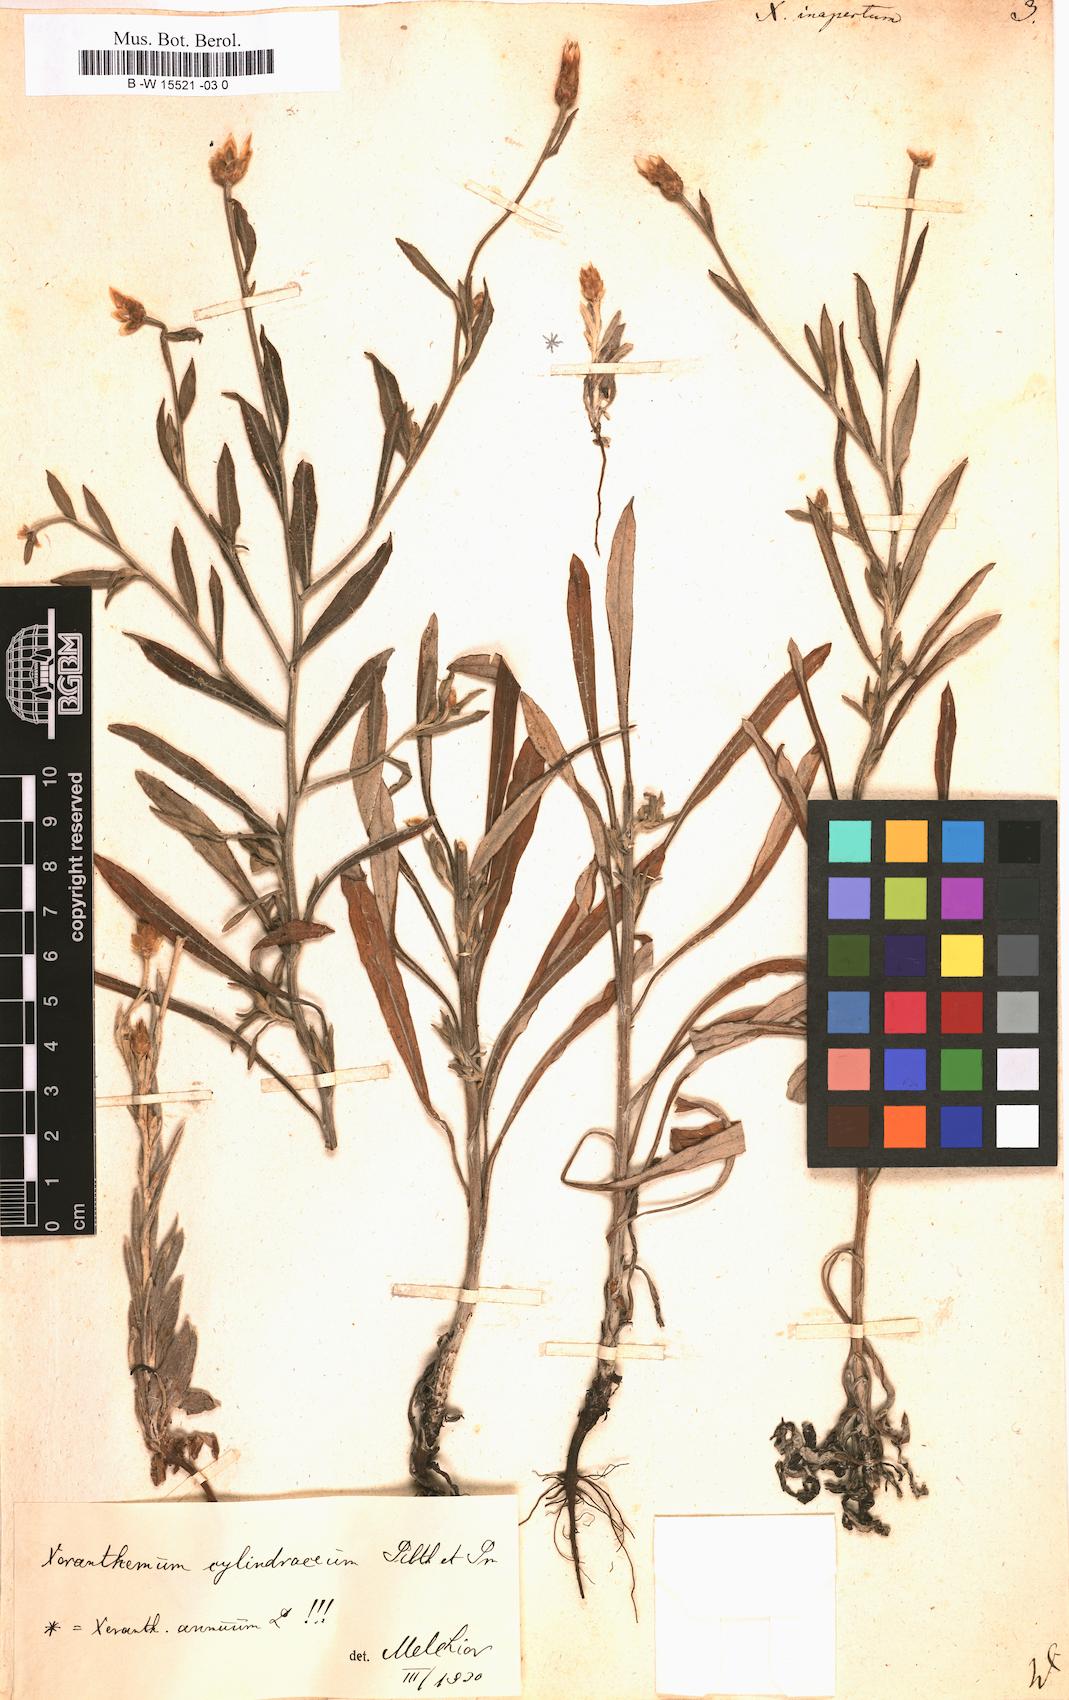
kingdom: Plantae
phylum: Tracheophyta
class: Magnoliopsida
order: Asterales
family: Asteraceae
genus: Xeranthemum
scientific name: Xeranthemum inapertum
